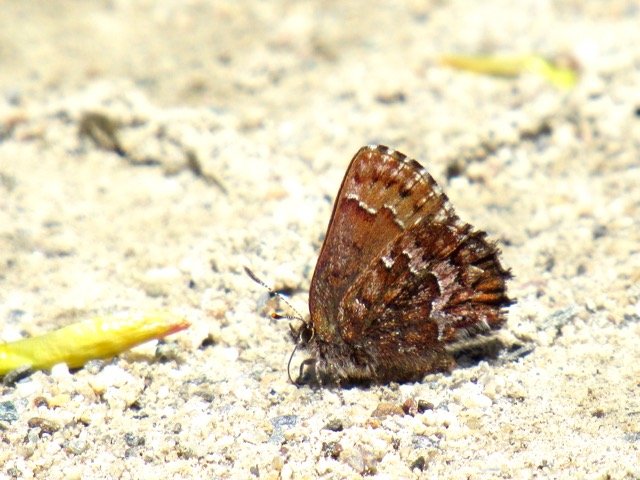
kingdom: Animalia
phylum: Arthropoda
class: Insecta
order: Lepidoptera
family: Lycaenidae
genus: Incisalia
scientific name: Incisalia niphon
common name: Eastern Pine Elfin
